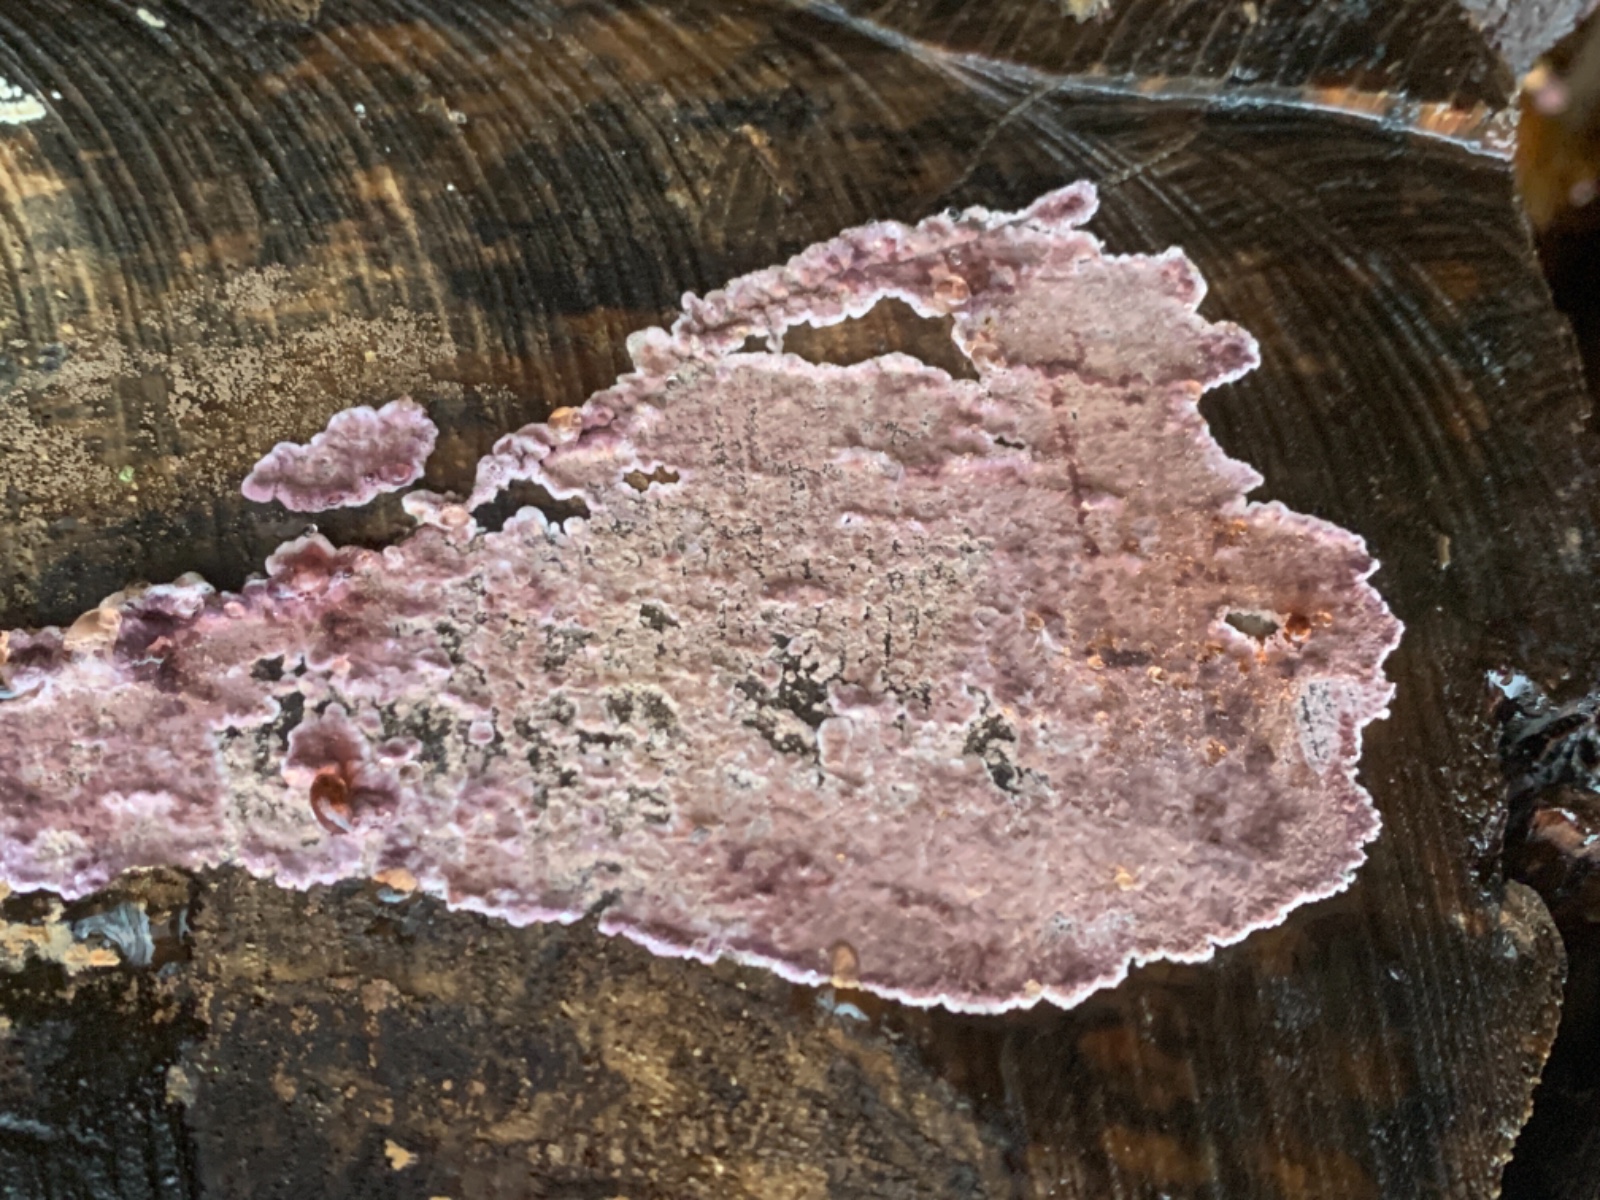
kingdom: Fungi
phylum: Basidiomycota
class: Agaricomycetes
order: Agaricales
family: Cyphellaceae
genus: Chondrostereum
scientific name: Chondrostereum purpureum
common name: purpurlædersvamp
